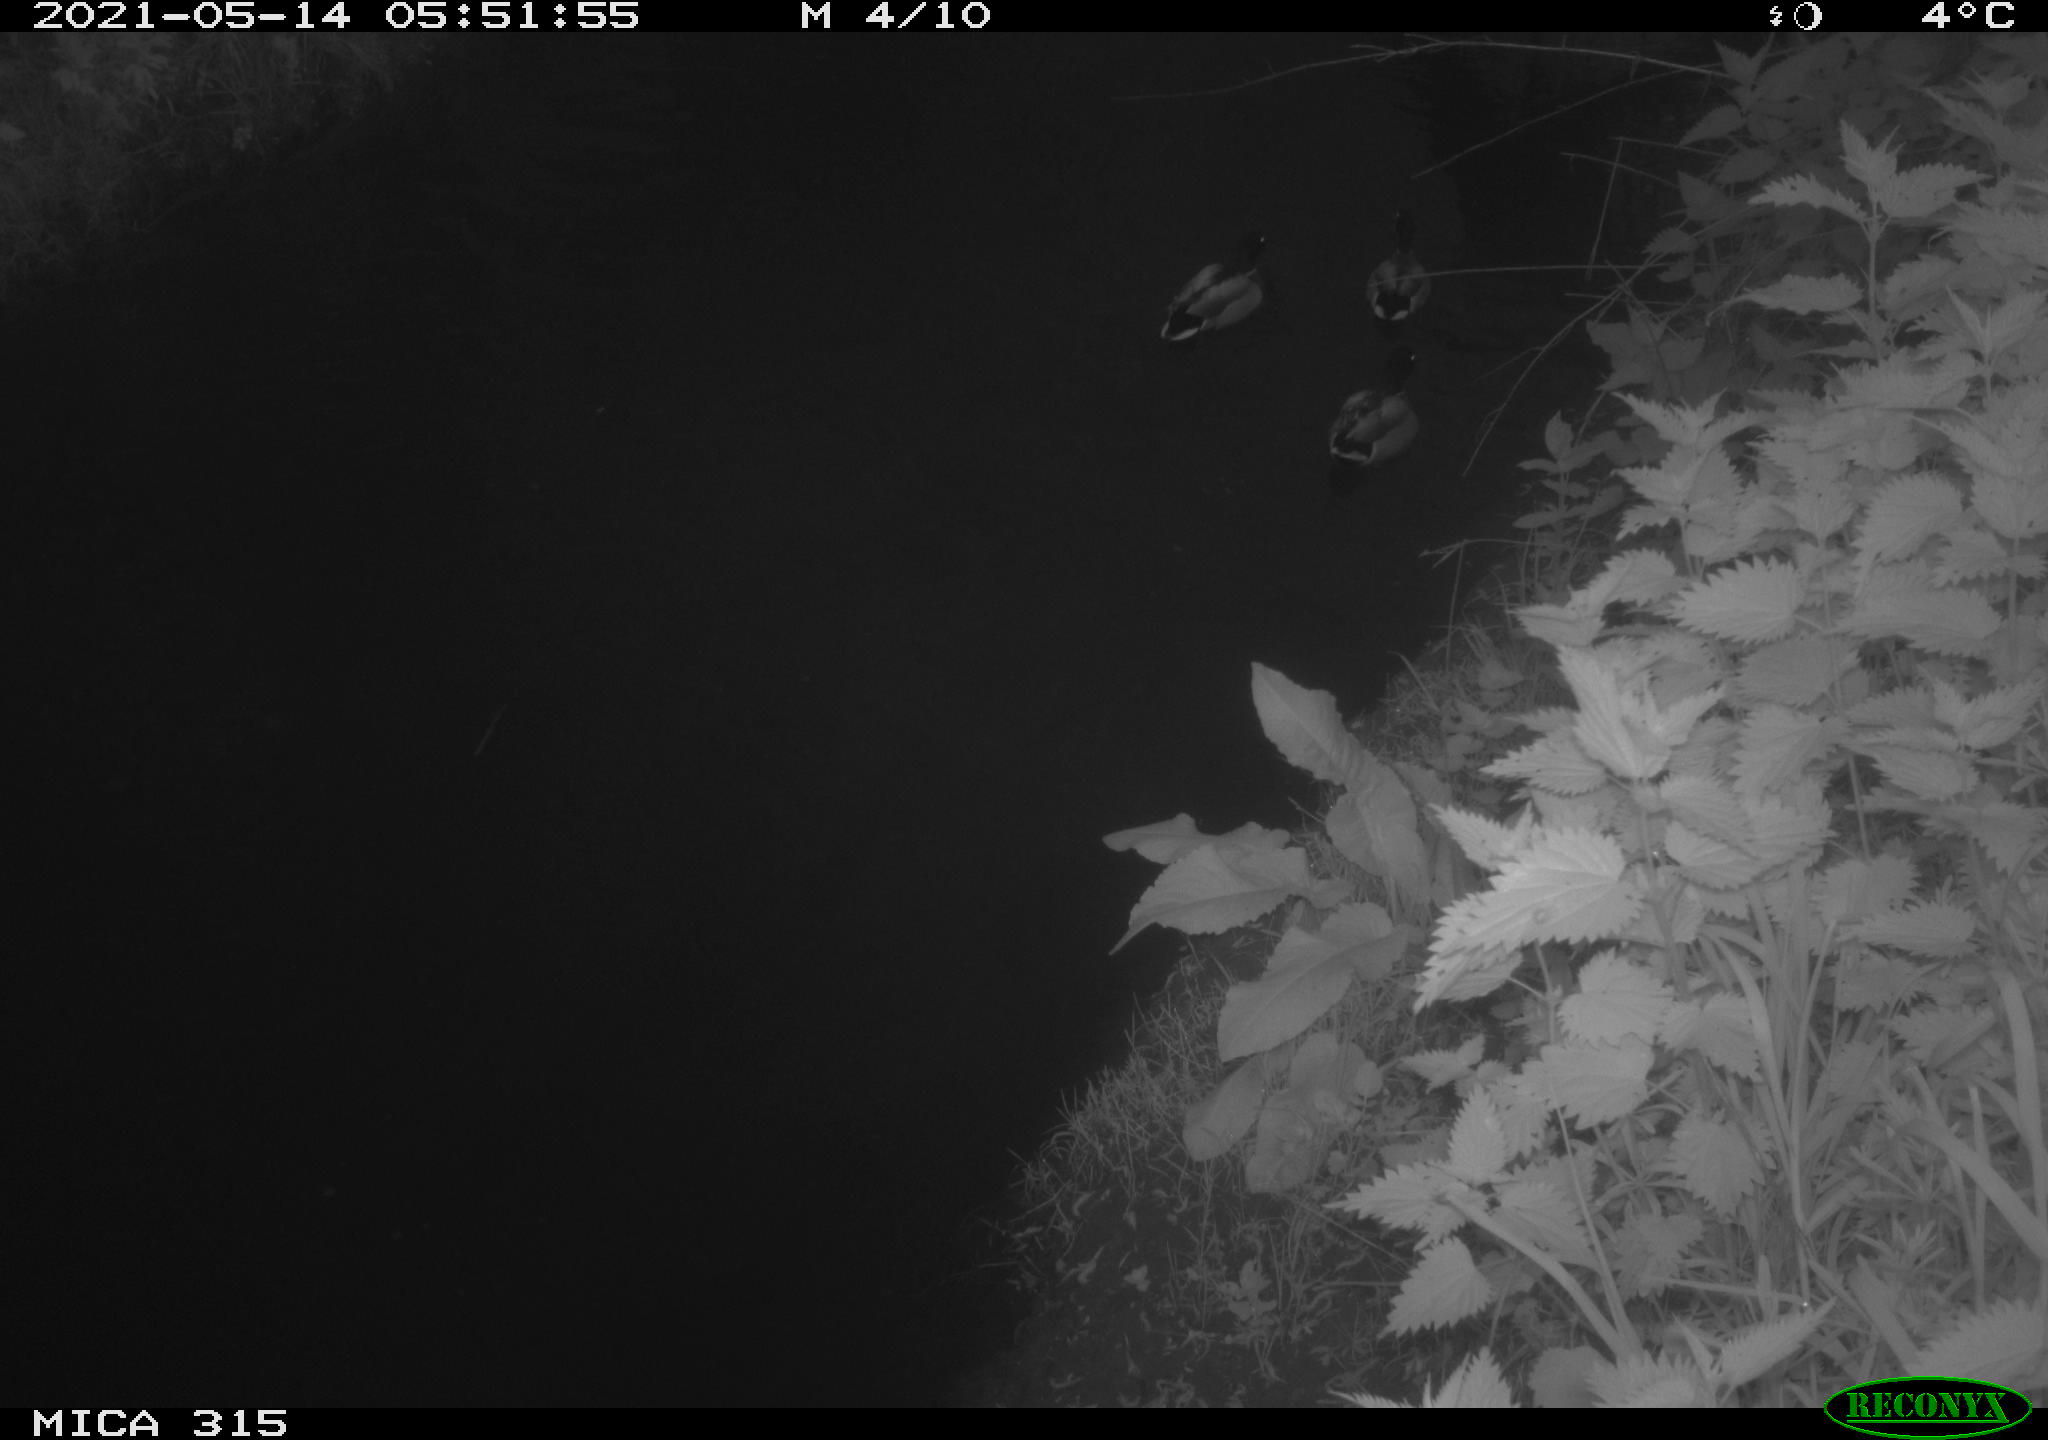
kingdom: Animalia
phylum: Chordata
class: Aves
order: Anseriformes
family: Anatidae
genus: Anas
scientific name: Anas
